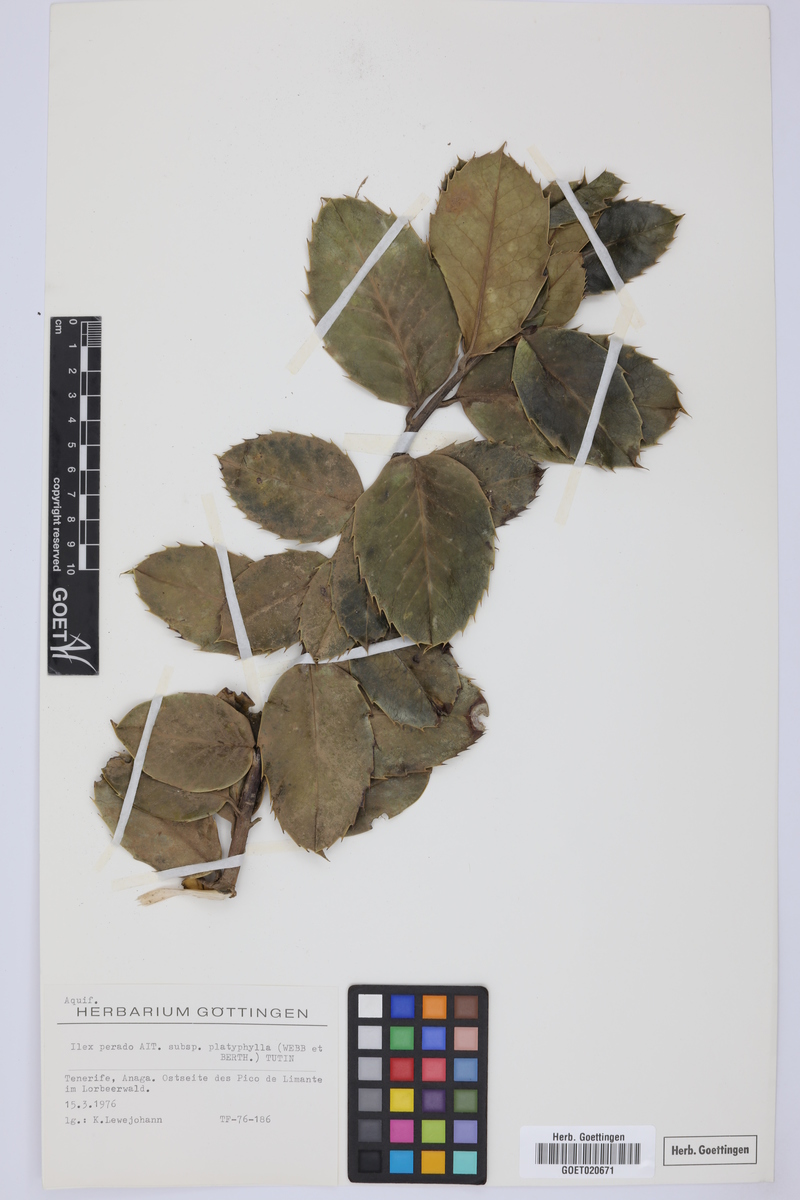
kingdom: Plantae
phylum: Tracheophyta
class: Magnoliopsida
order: Aquifoliales
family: Aquifoliaceae
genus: Ilex
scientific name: Ilex perado
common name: Madeira holly
